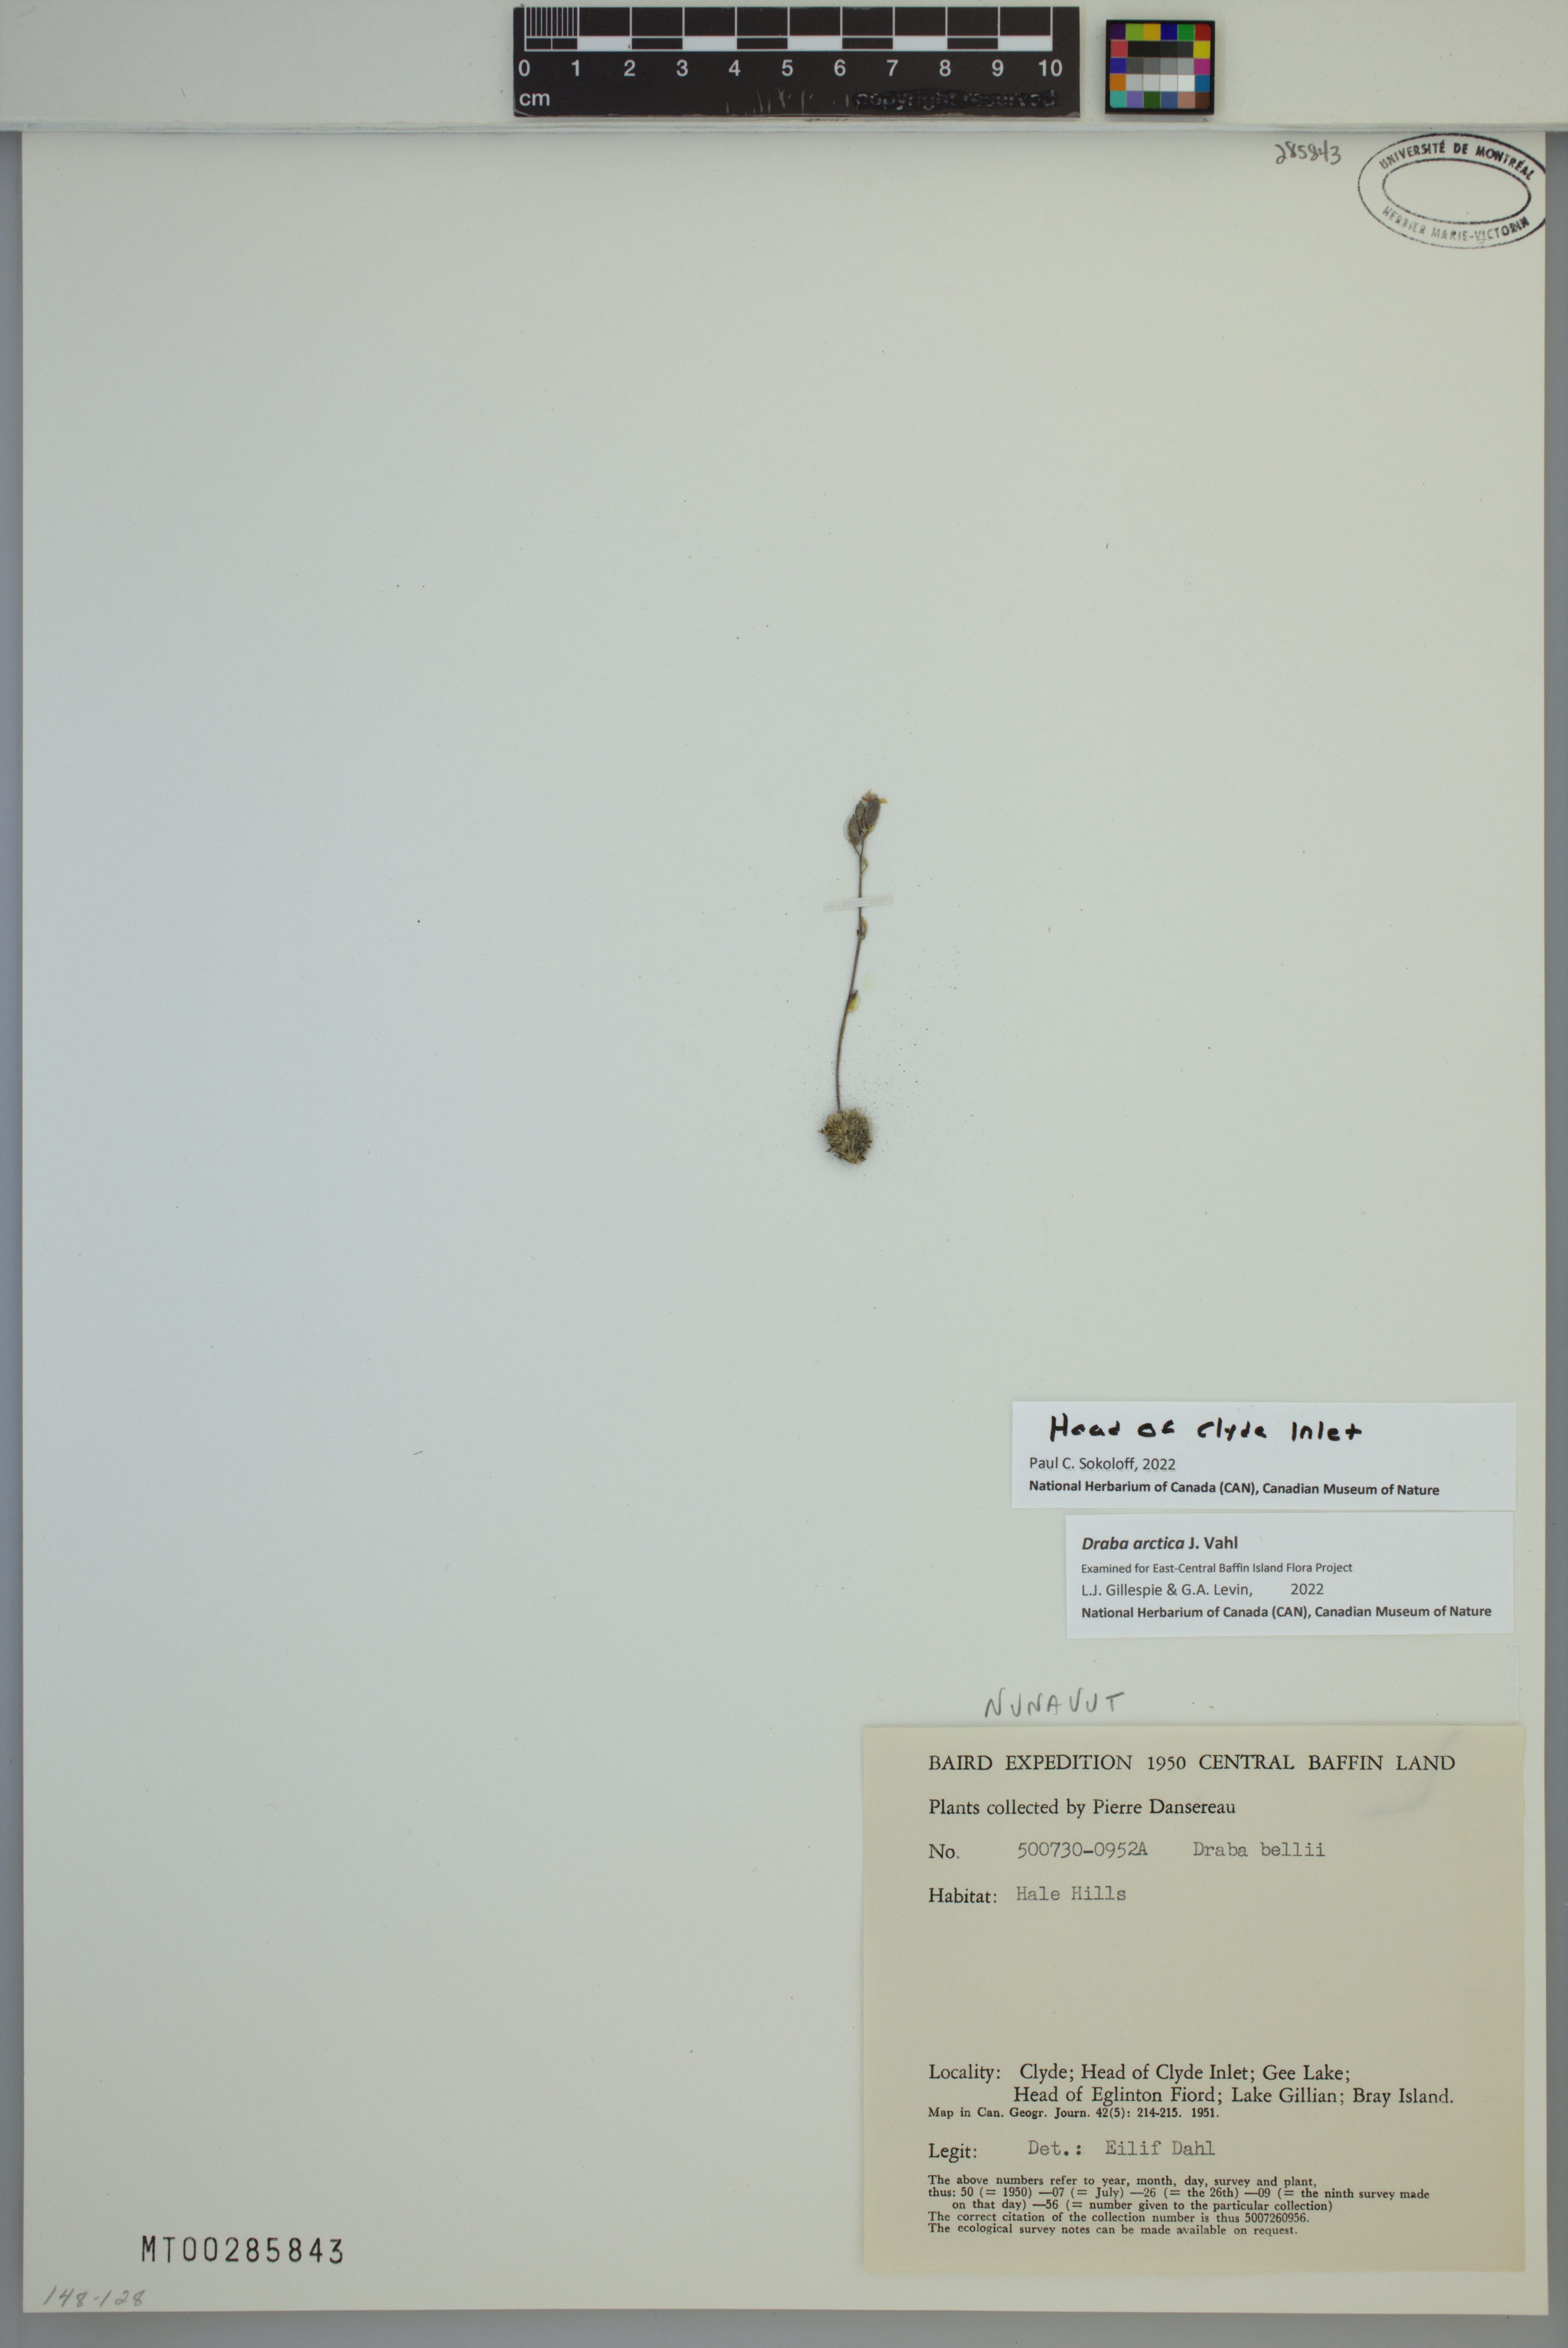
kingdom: Plantae
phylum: Tracheophyta
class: Magnoliopsida
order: Brassicales
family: Brassicaceae
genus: Draba
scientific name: Draba arctica
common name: Arctic draba
